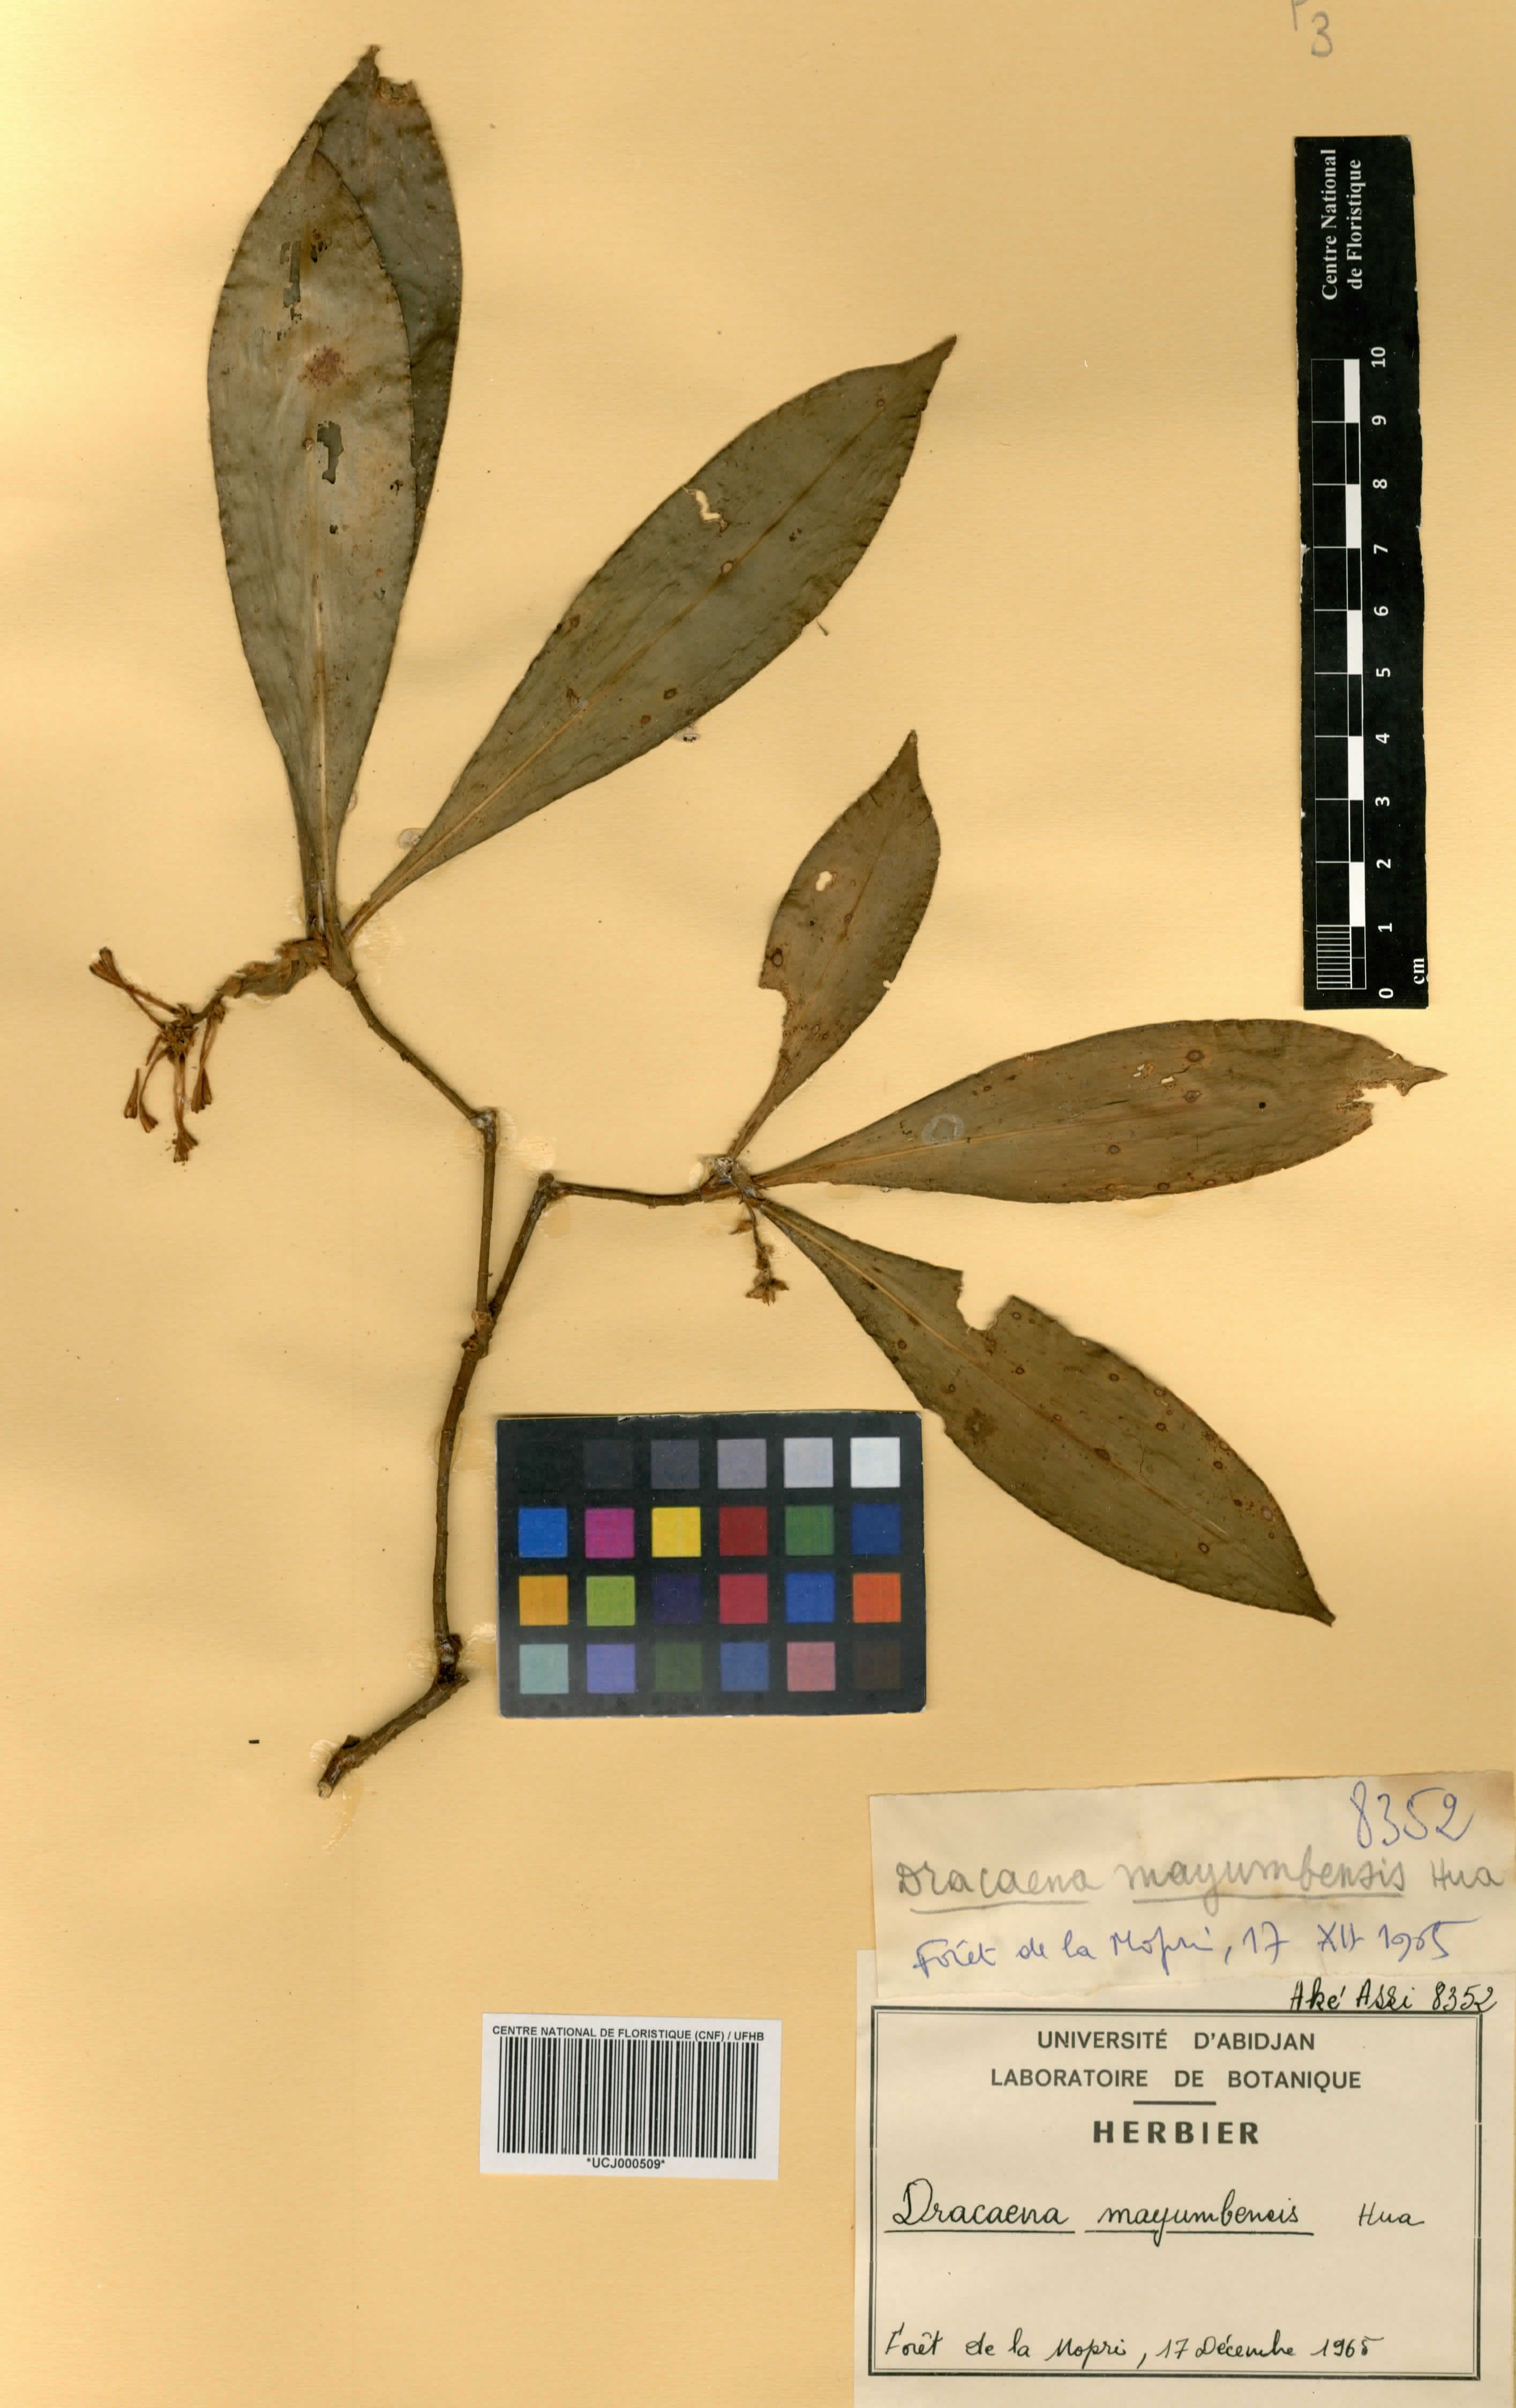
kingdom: Plantae
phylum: Tracheophyta
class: Liliopsida
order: Asparagales
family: Asparagaceae
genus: Dracaena
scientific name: Dracaena camerooniana
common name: Dragon tree
